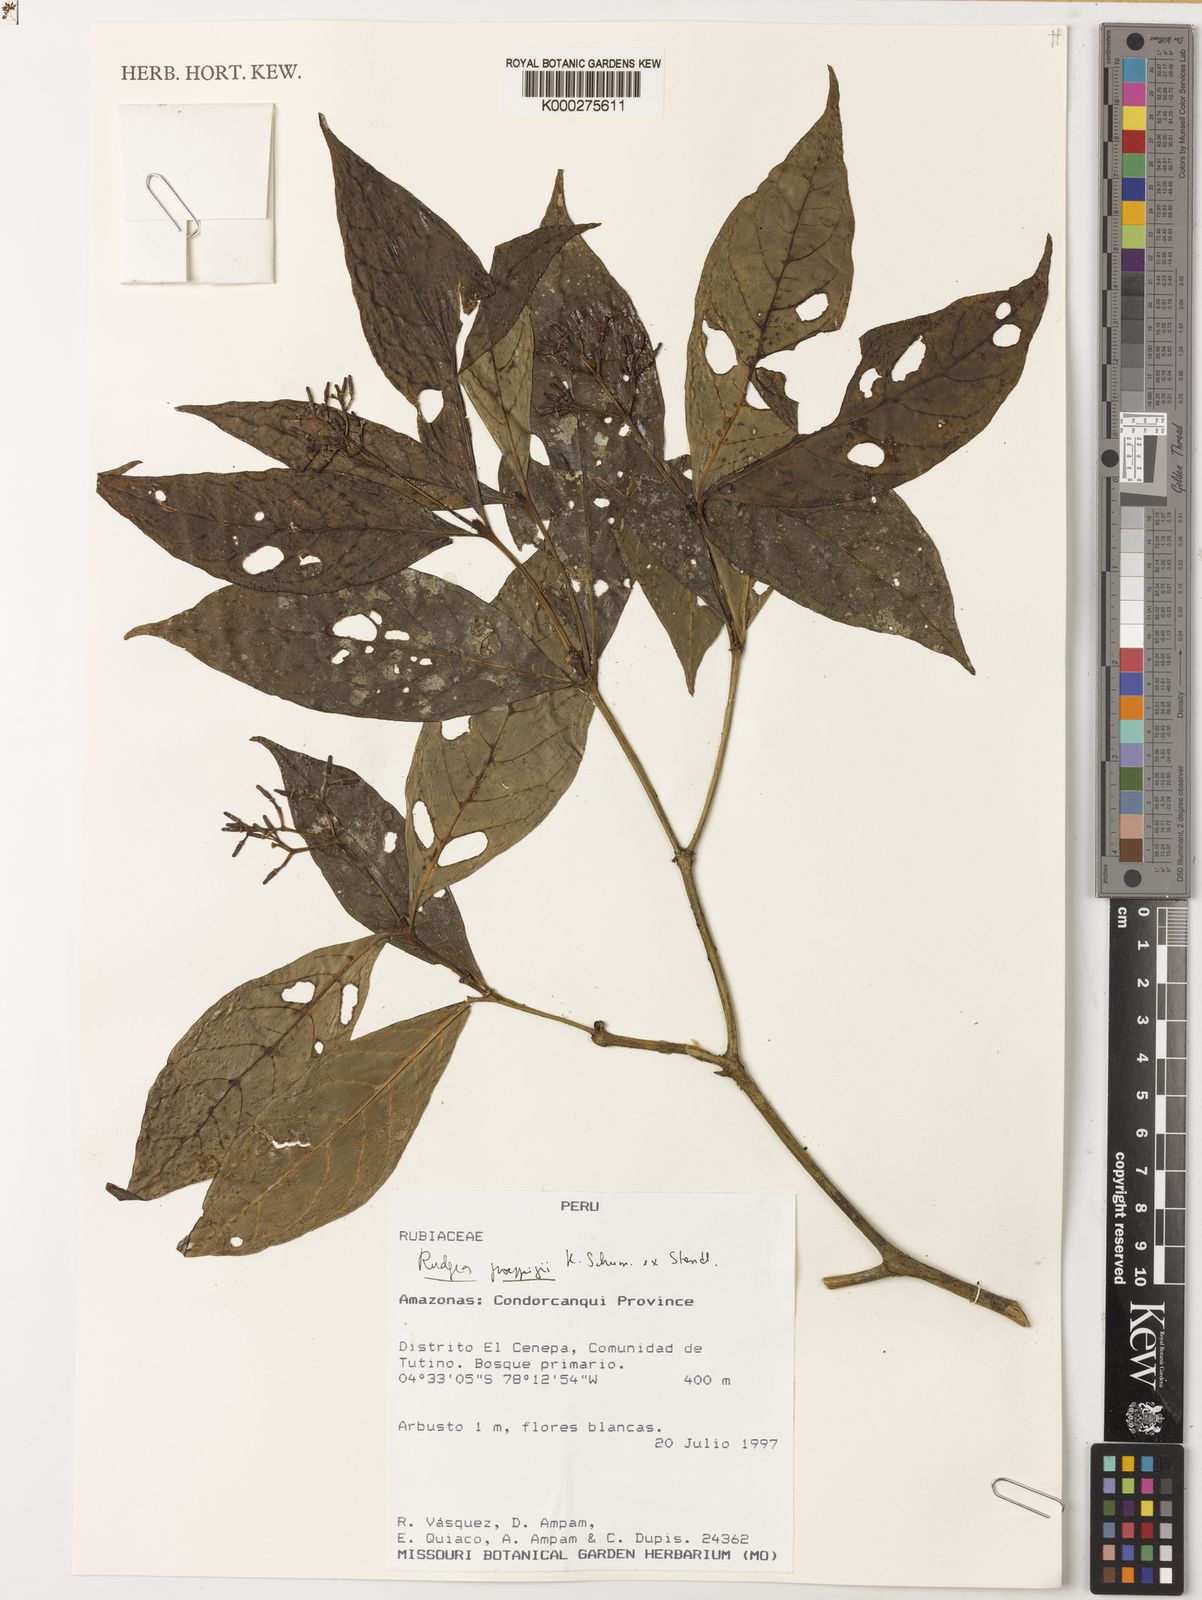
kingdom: Plantae
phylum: Tracheophyta
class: Magnoliopsida
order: Gentianales
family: Rubiaceae
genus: Rudgea
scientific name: Rudgea poeppigii
